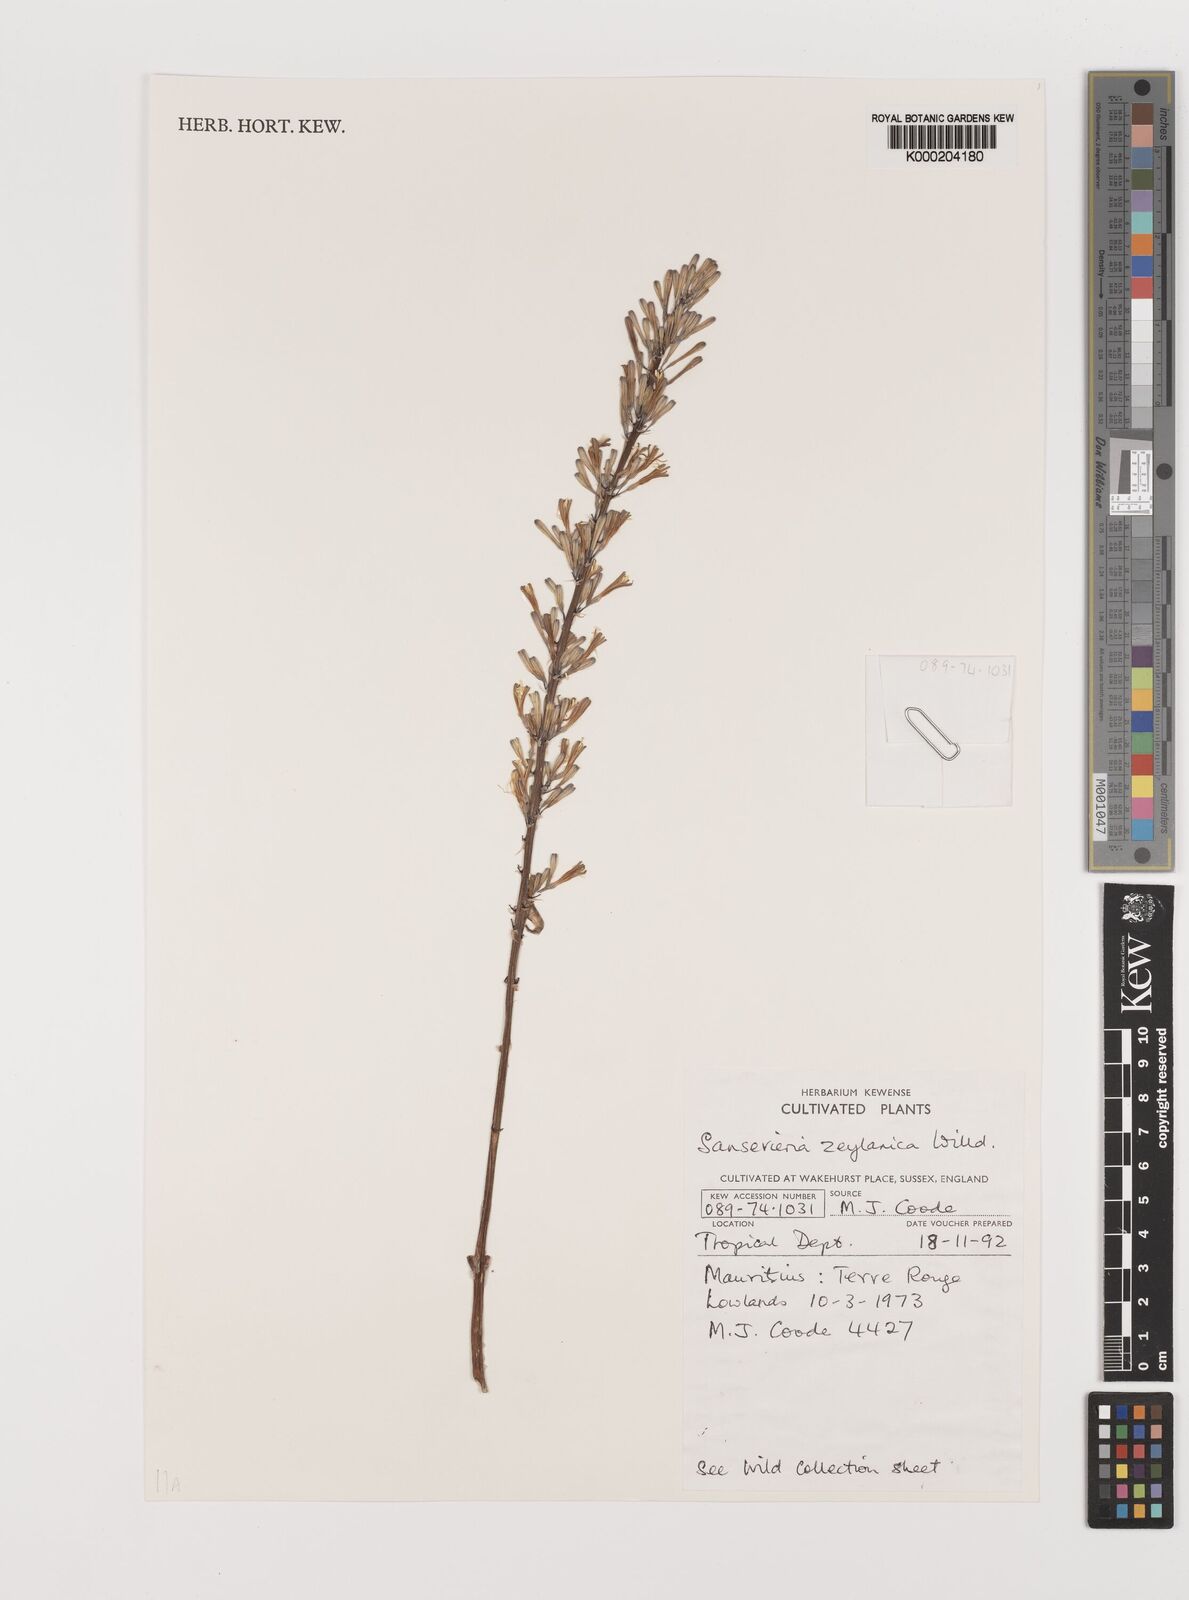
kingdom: Plantae
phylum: Tracheophyta
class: Liliopsida
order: Asparagales
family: Asparagaceae
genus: Dracaena
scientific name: Dracaena zeylanica
